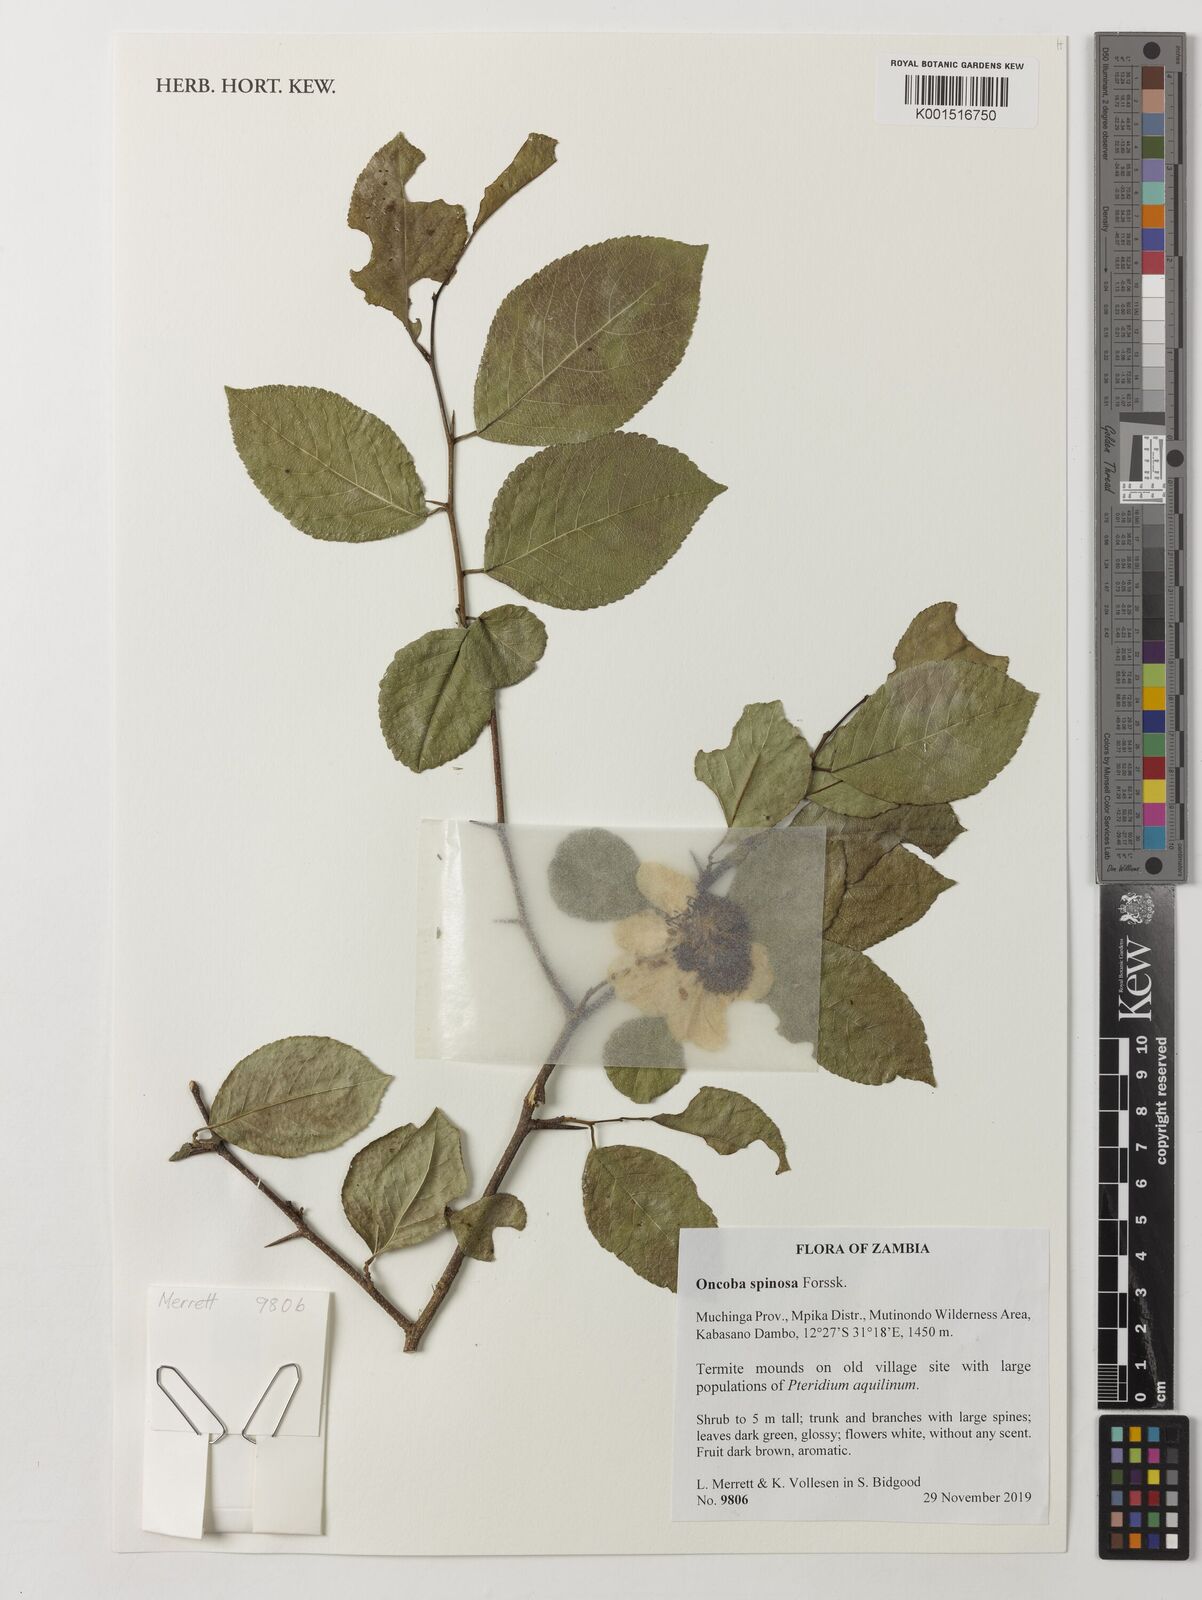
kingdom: Plantae
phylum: Tracheophyta
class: Magnoliopsida
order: Malpighiales
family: Salicaceae
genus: Oncoba
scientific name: Oncoba spinosa
